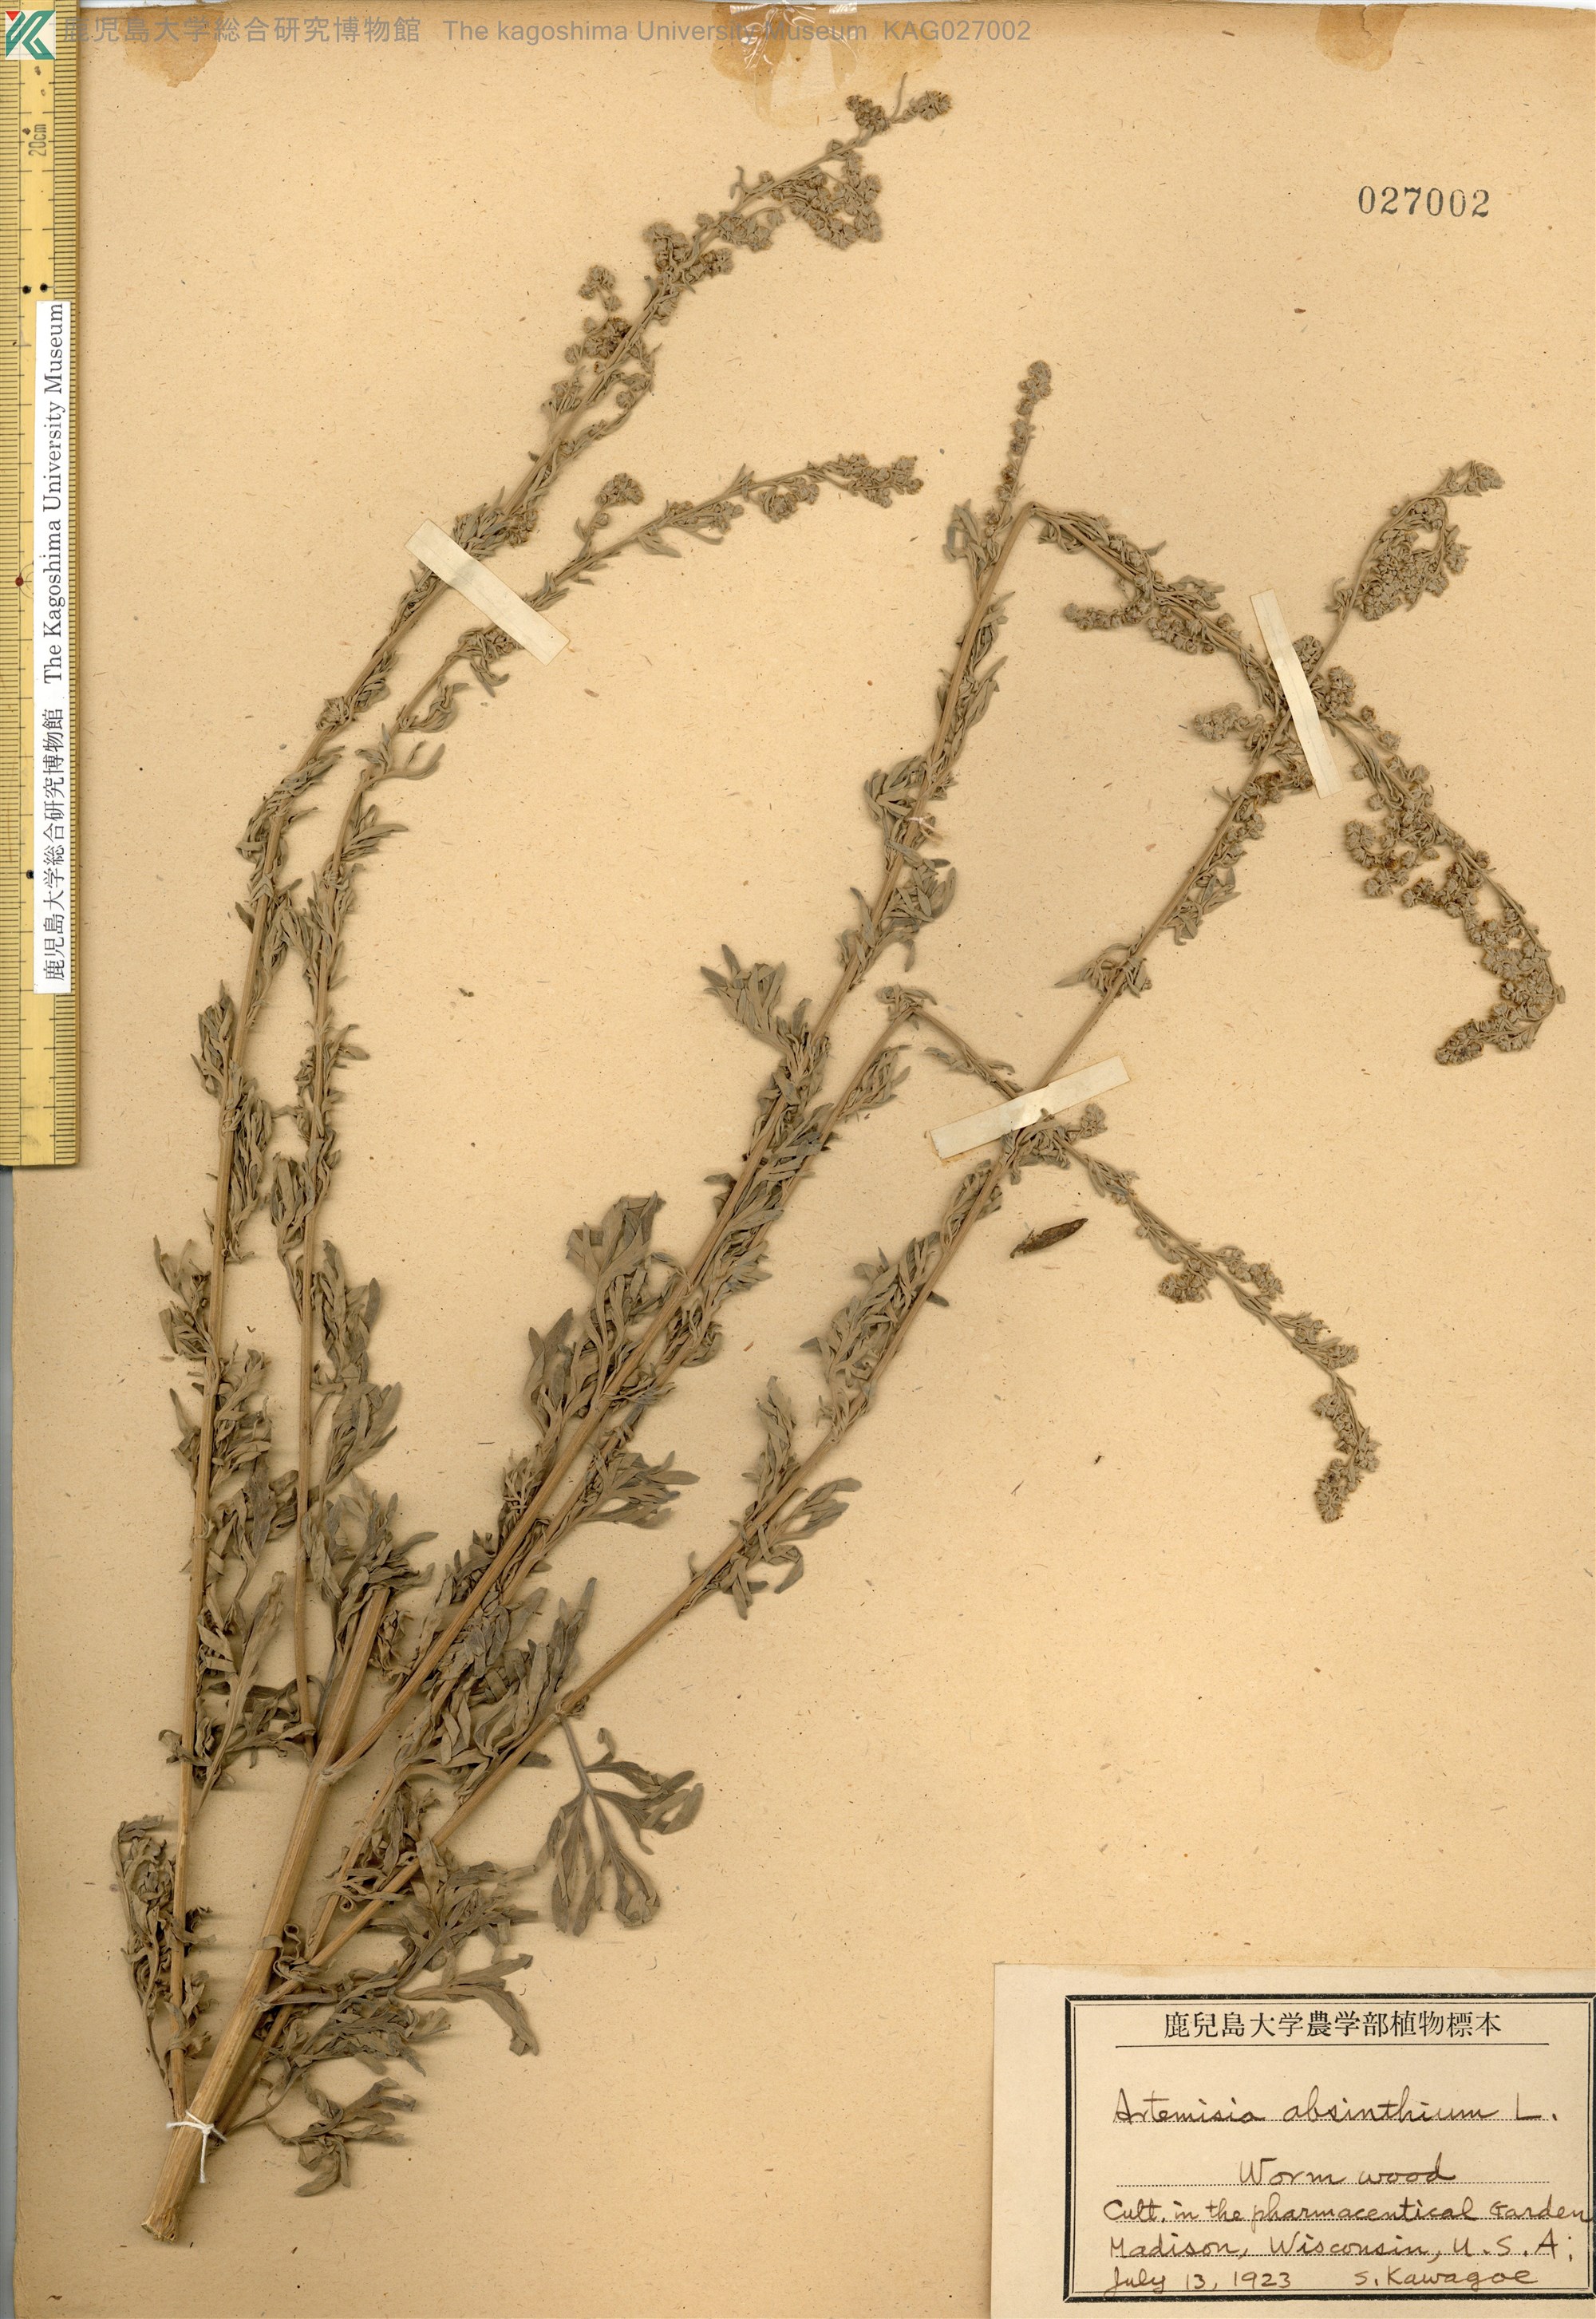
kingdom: Plantae
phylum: Tracheophyta
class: Magnoliopsida
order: Asterales
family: Asteraceae
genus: Artemisia
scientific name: Artemisia absinthium
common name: Wormwood
